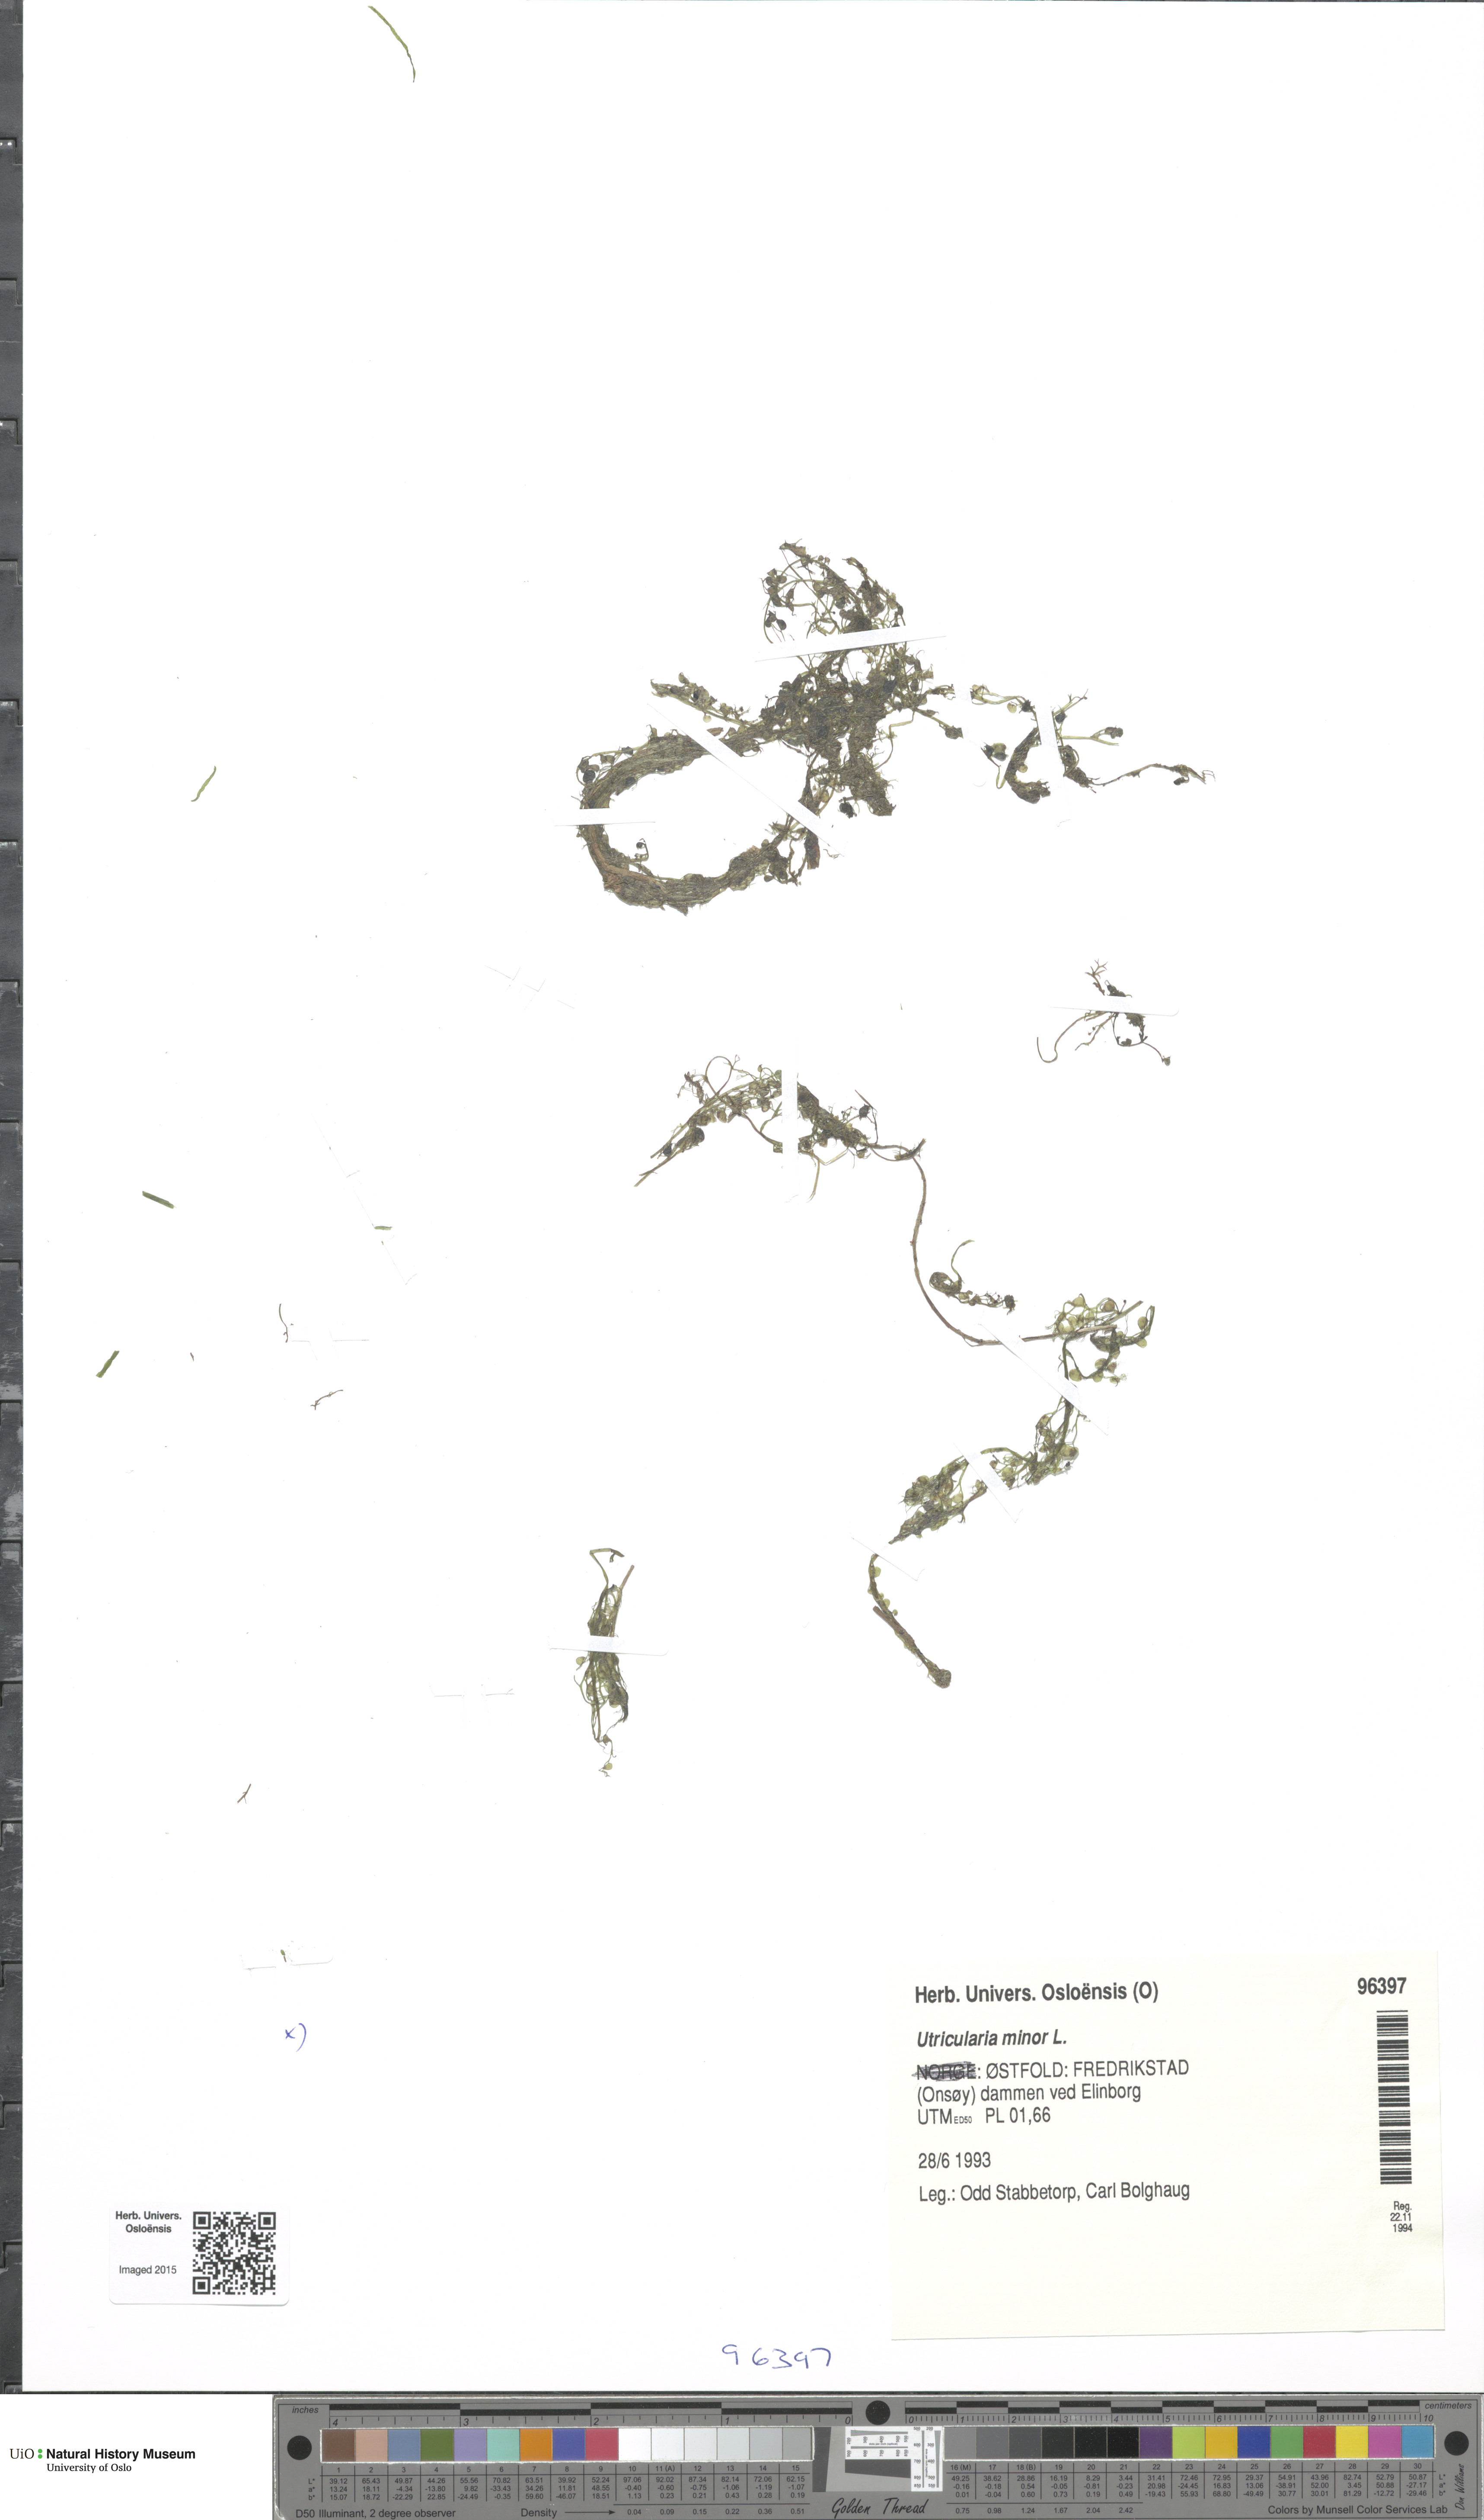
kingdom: Plantae
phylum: Tracheophyta
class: Magnoliopsida
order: Lamiales
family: Lentibulariaceae
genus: Utricularia
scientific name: Utricularia minor
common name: Lesser bladderwort
